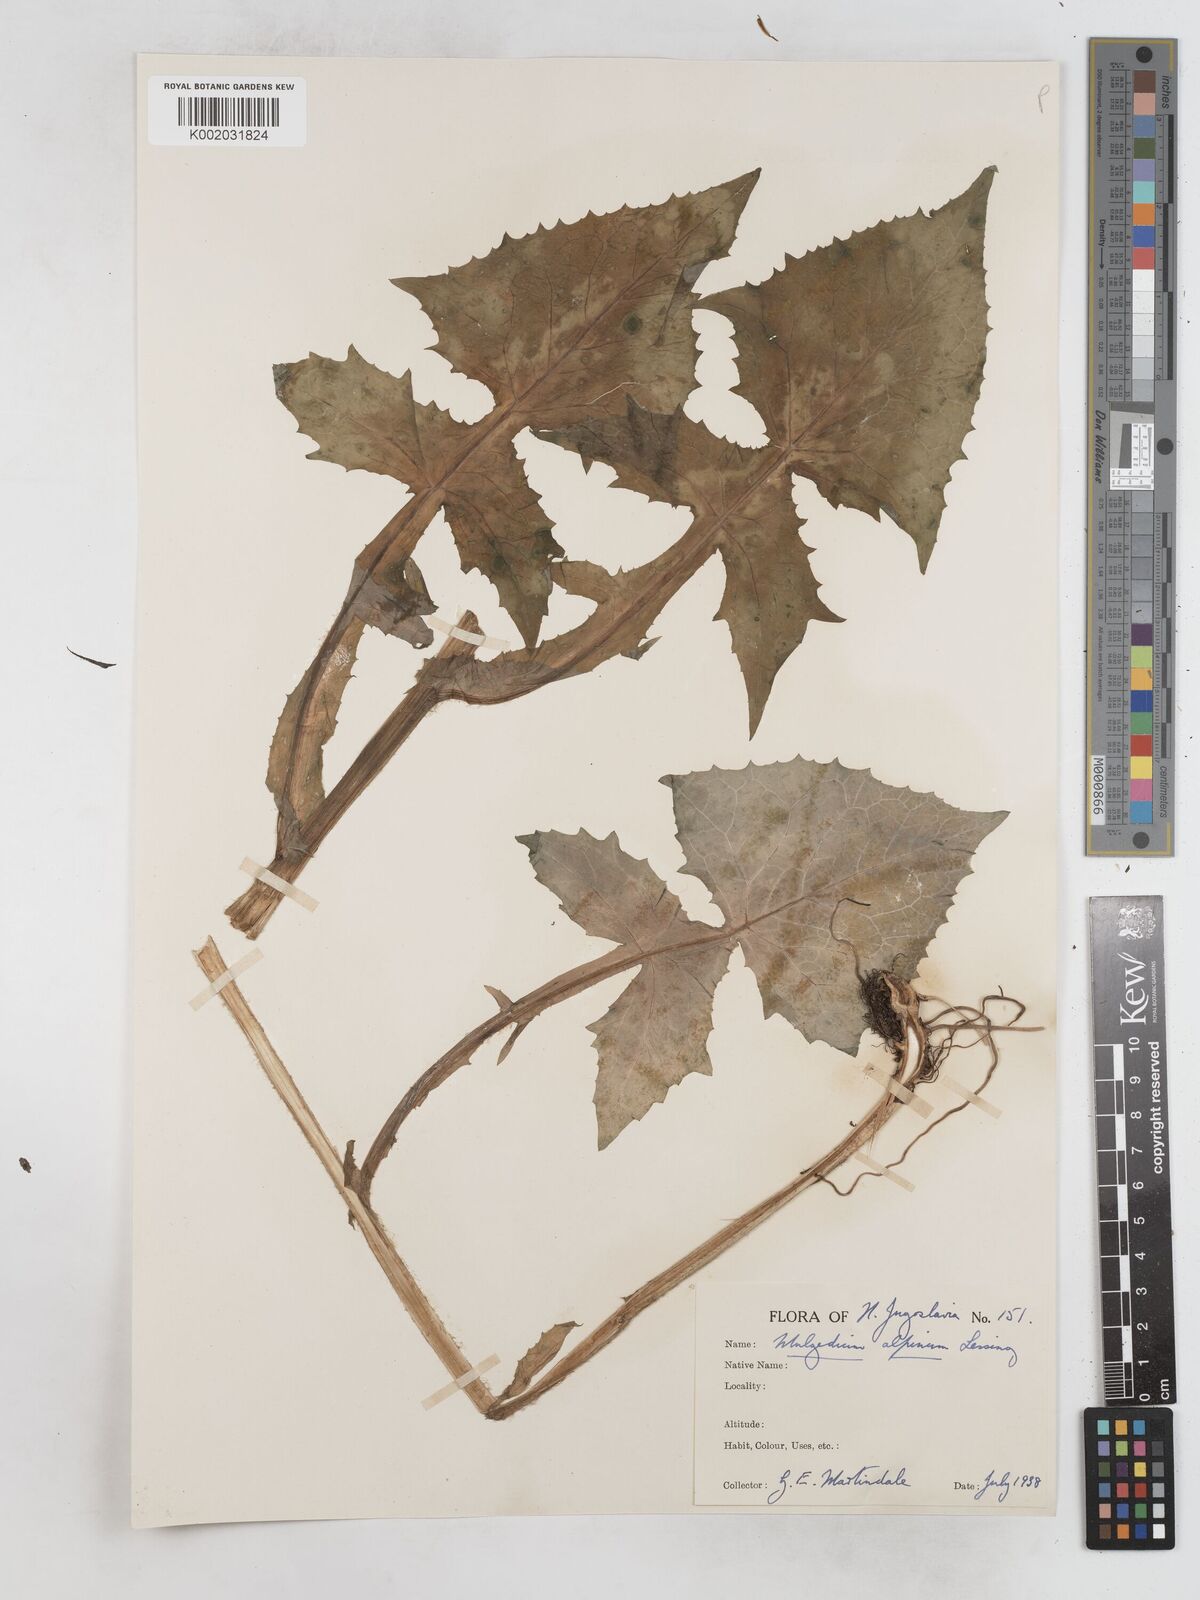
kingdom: Plantae
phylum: Tracheophyta
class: Magnoliopsida
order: Asterales
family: Asteraceae
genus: Cicerbita
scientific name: Cicerbita alpina
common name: Alpine blue-sow-thistle
